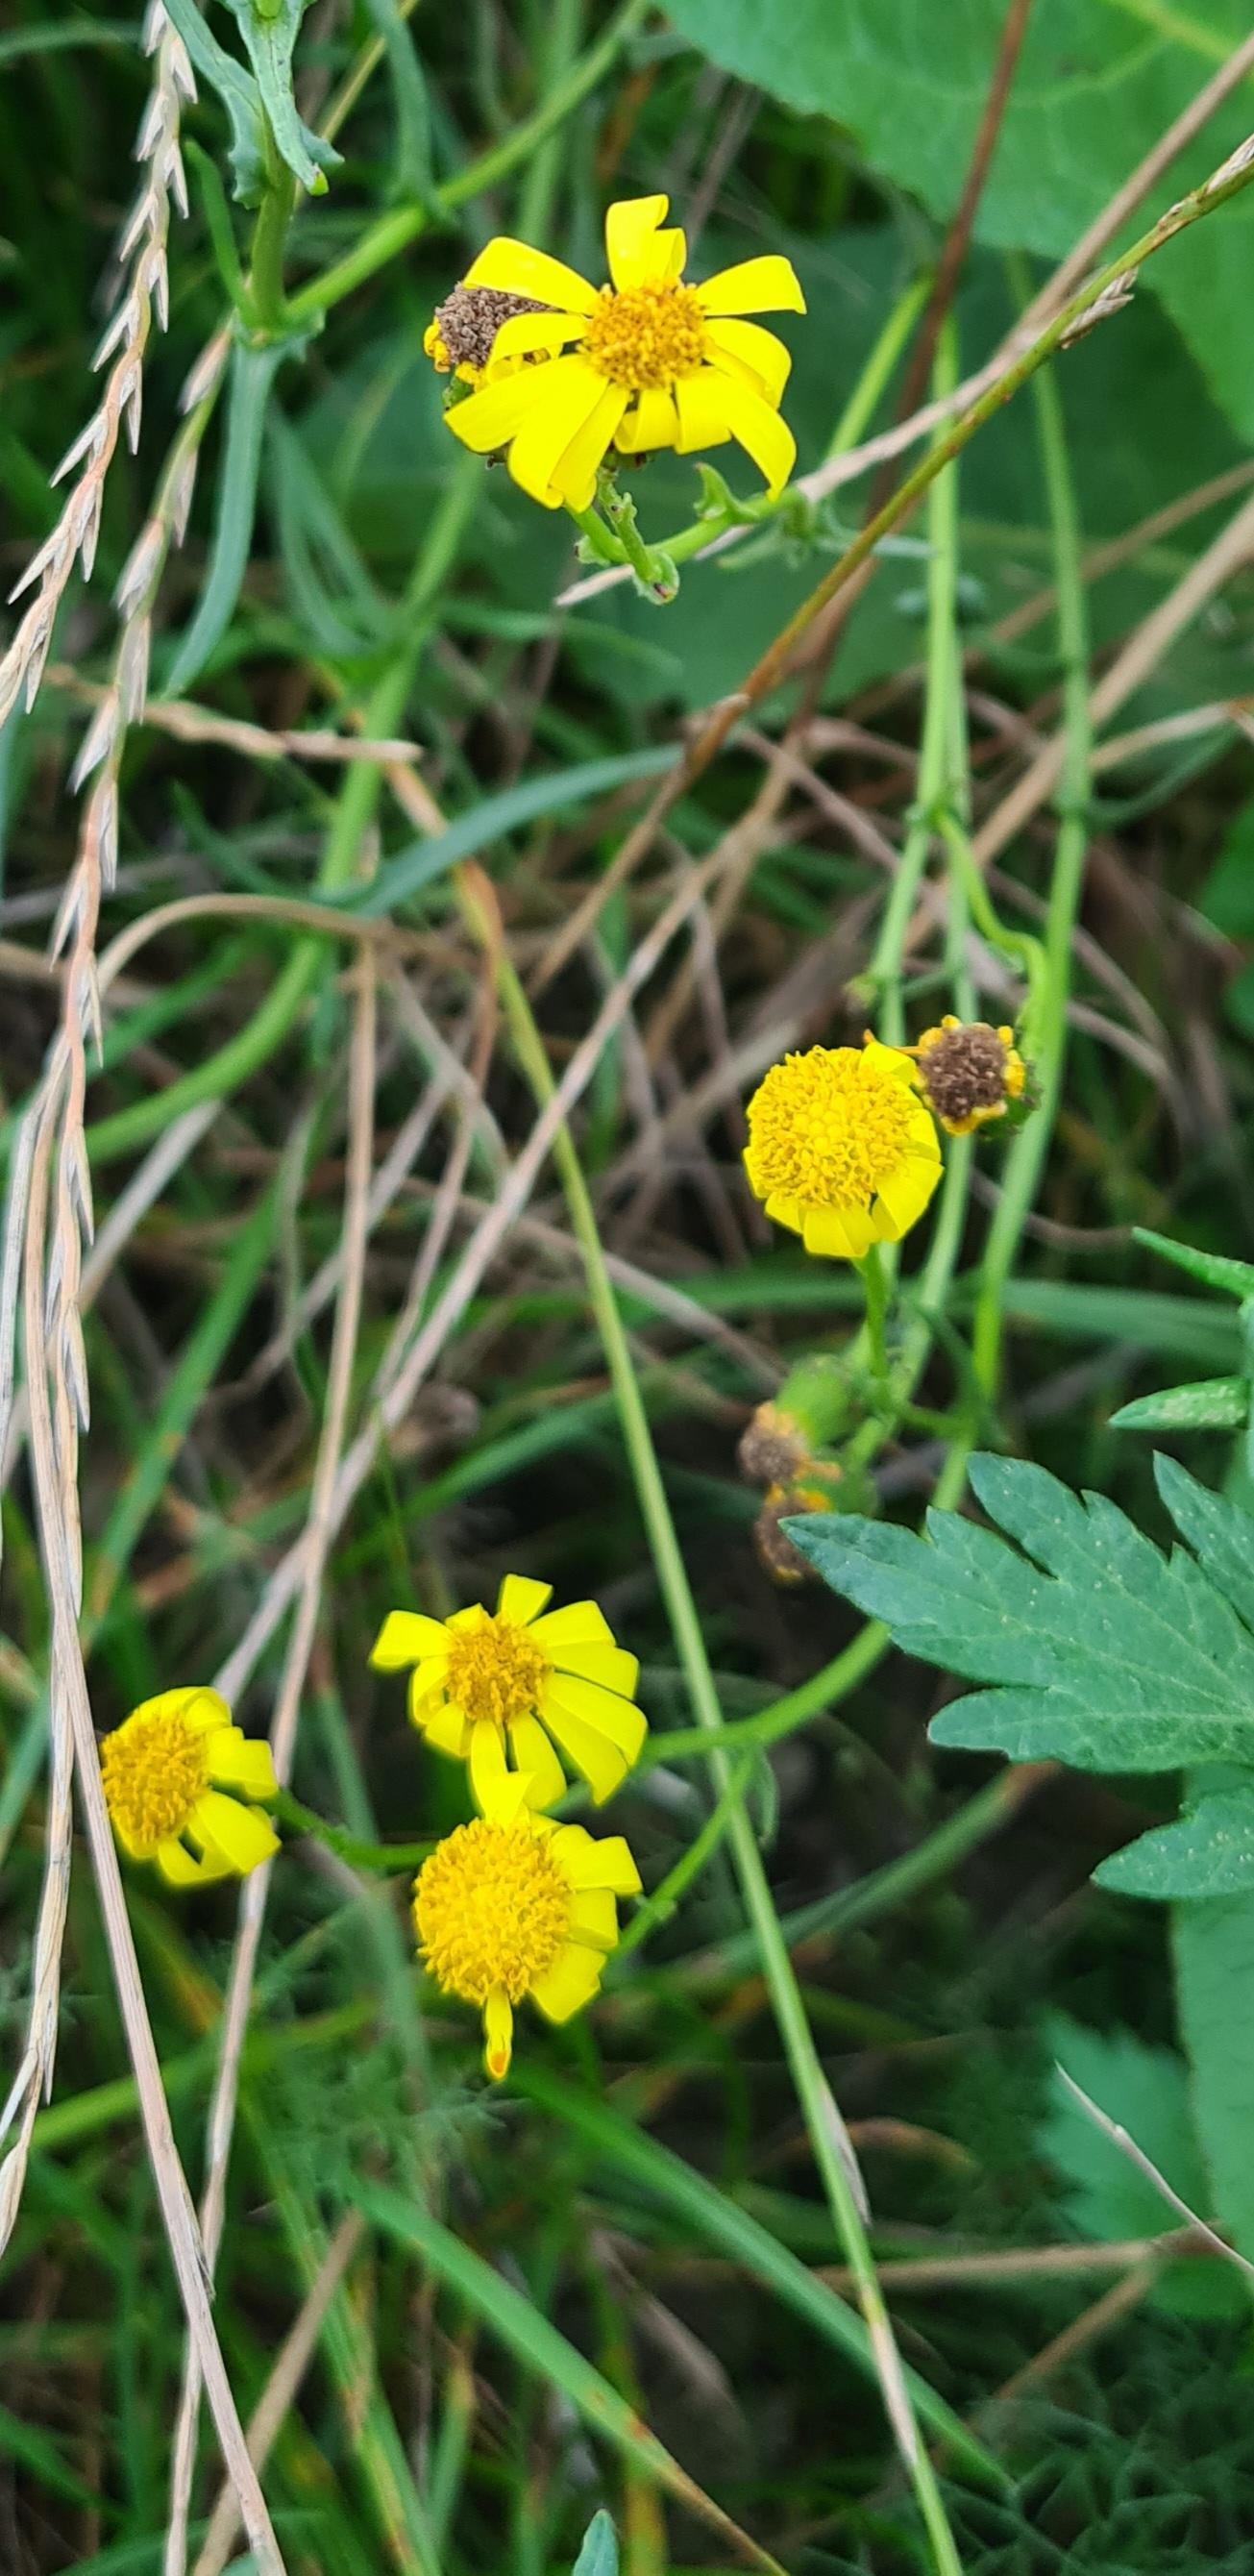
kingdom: Plantae
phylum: Tracheophyta
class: Magnoliopsida
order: Asterales
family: Asteraceae
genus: Senecio
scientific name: Senecio inaequidens
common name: Smalbladet brandbæger
